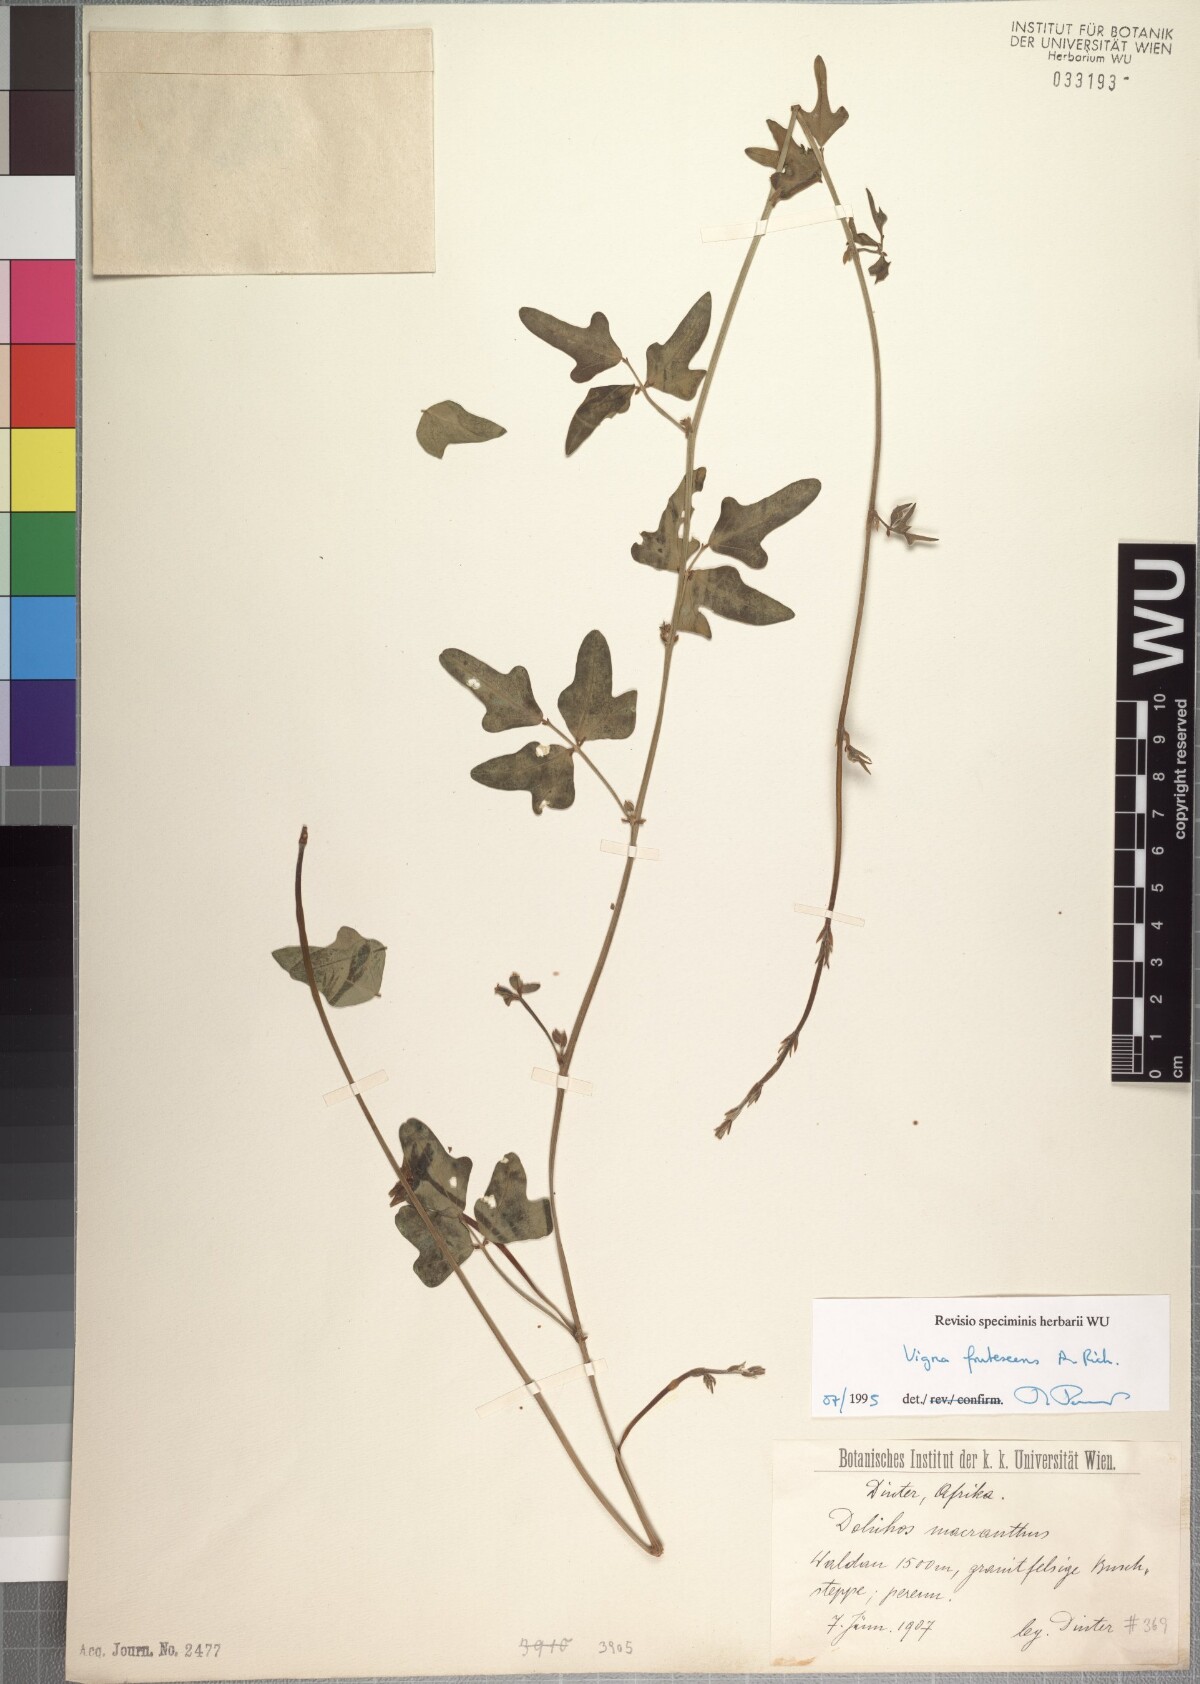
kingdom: Plantae
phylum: Tracheophyta
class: Magnoliopsida
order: Fabales
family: Fabaceae
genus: Vigna
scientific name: Vigna frutescens
